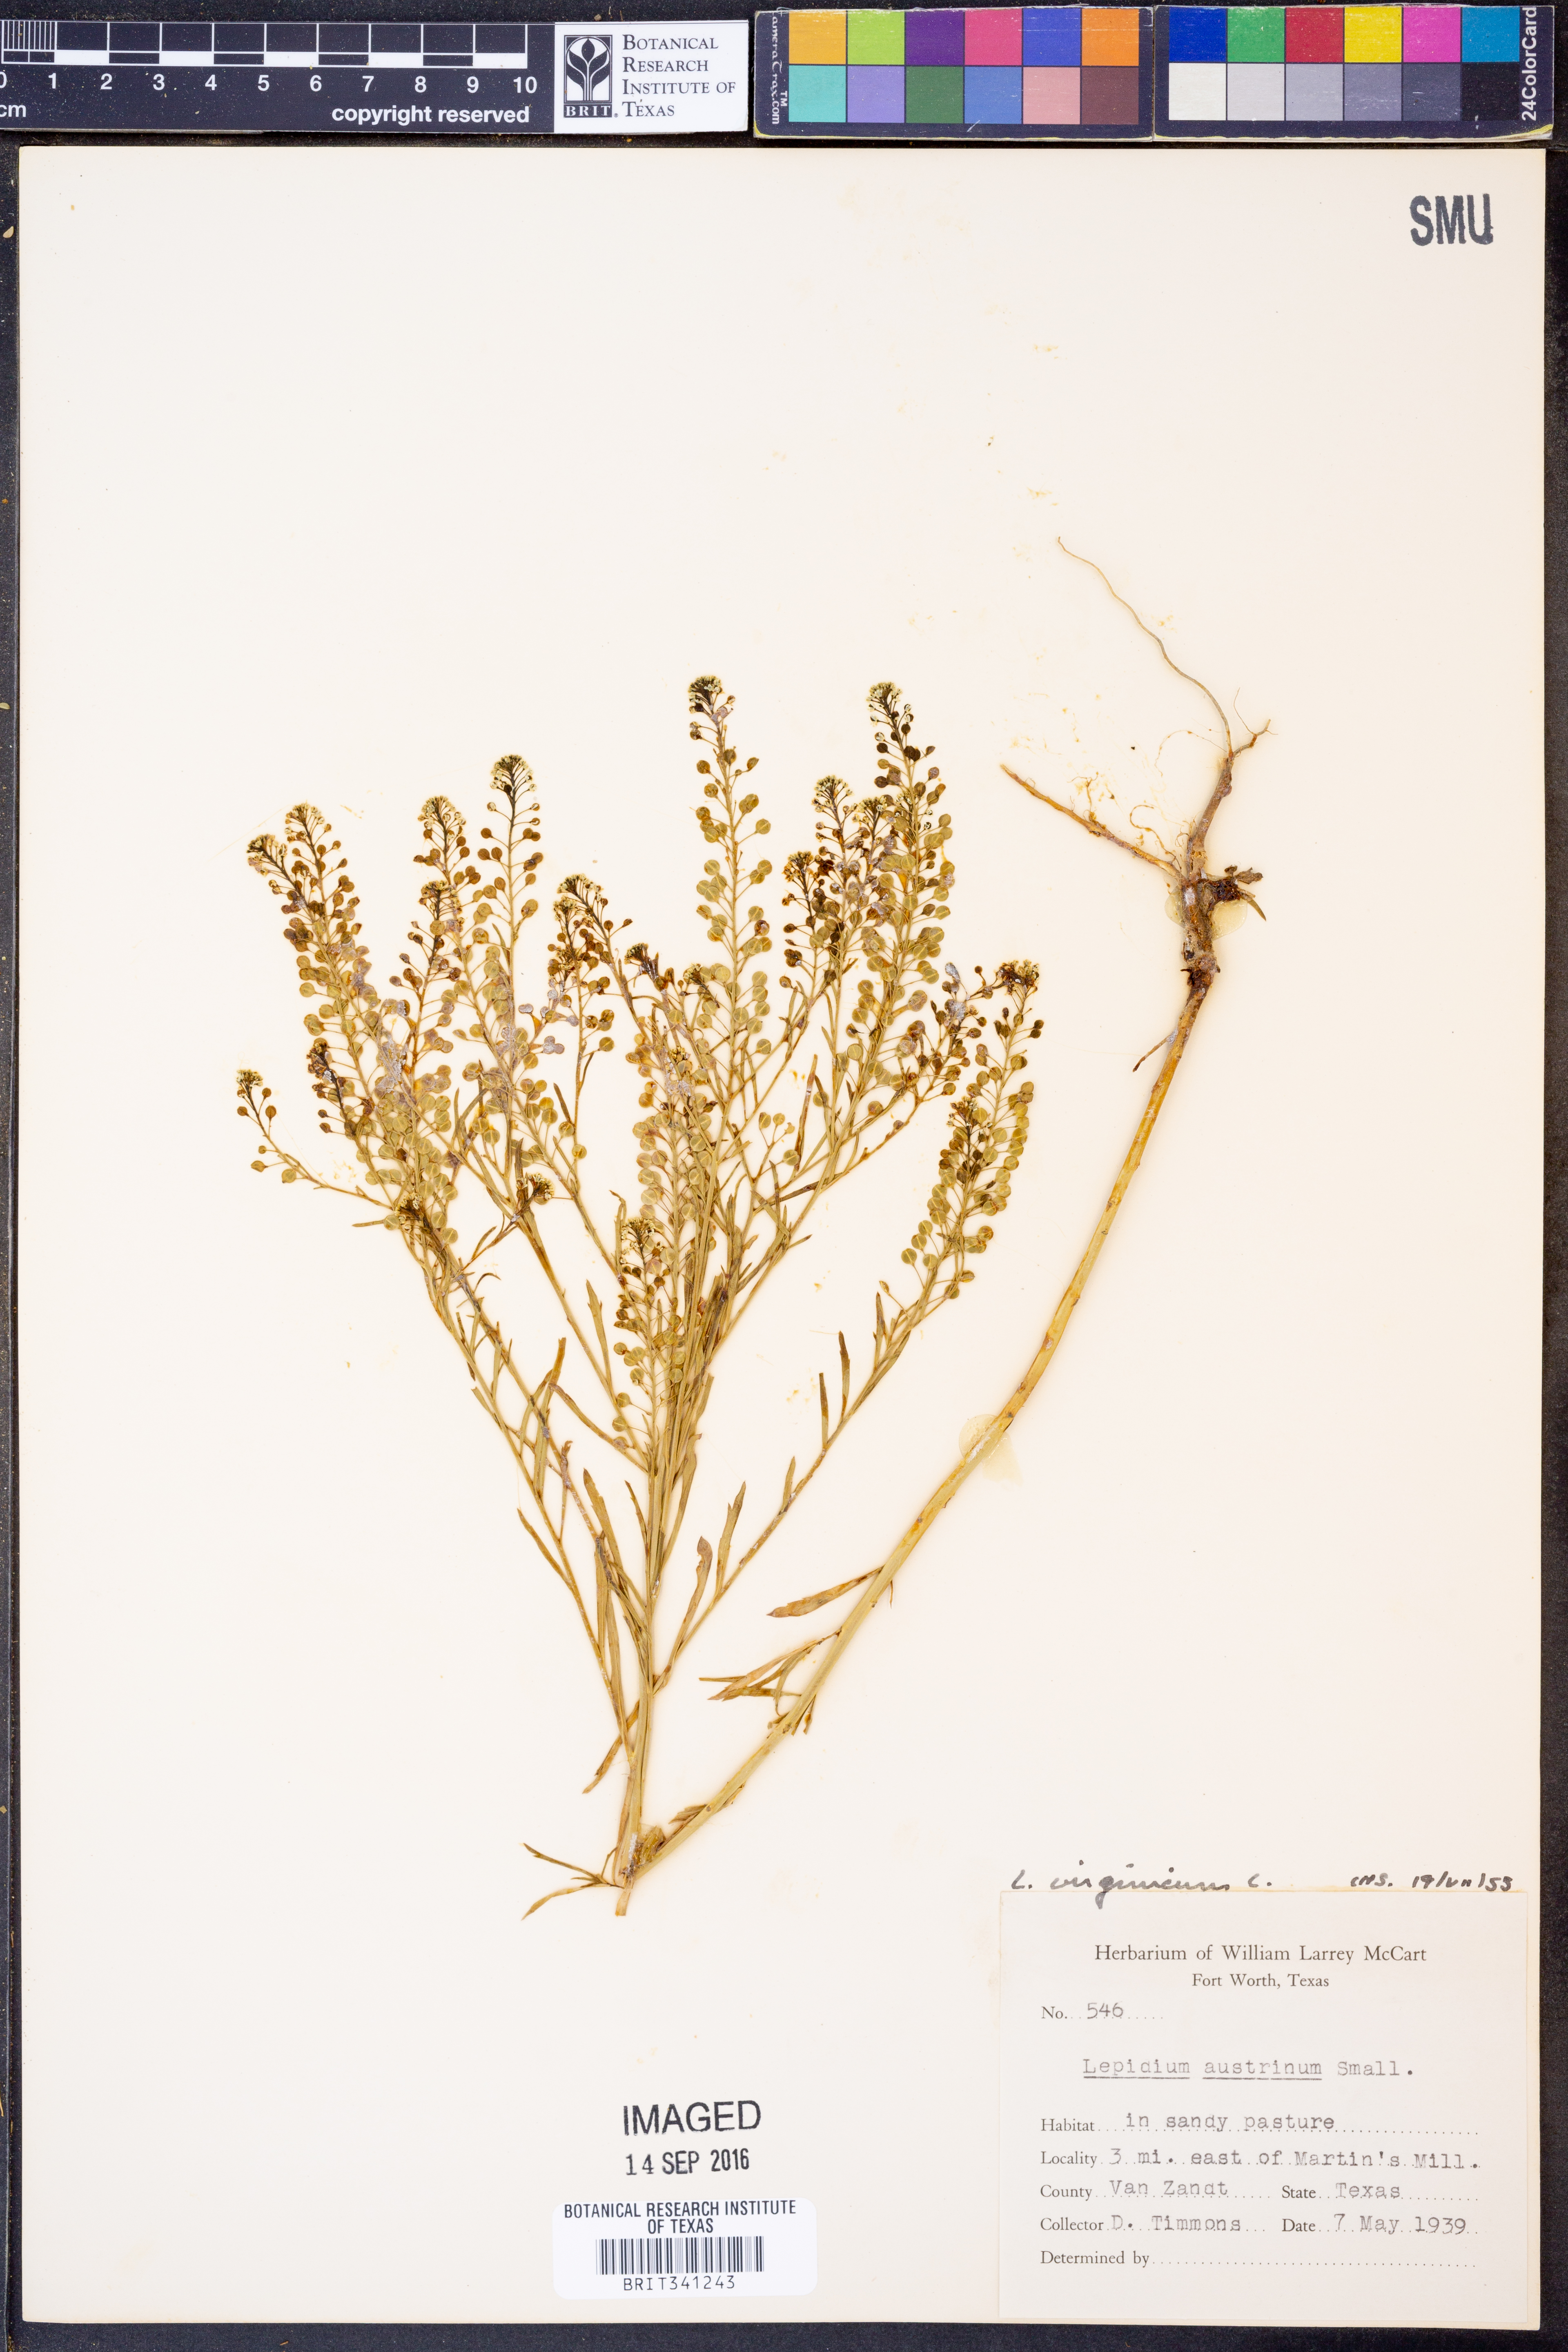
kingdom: Plantae
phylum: Tracheophyta
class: Magnoliopsida
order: Brassicales
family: Brassicaceae
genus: Lepidium
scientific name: Lepidium virginicum
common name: Least pepperwort
